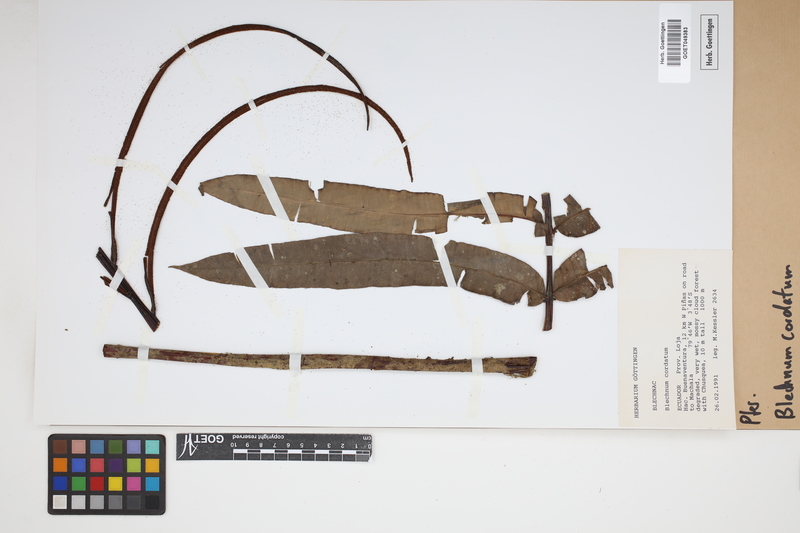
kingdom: Plantae
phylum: Tracheophyta
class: Polypodiopsida
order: Polypodiales
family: Blechnaceae
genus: Parablechnum
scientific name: Parablechnum cordatum
